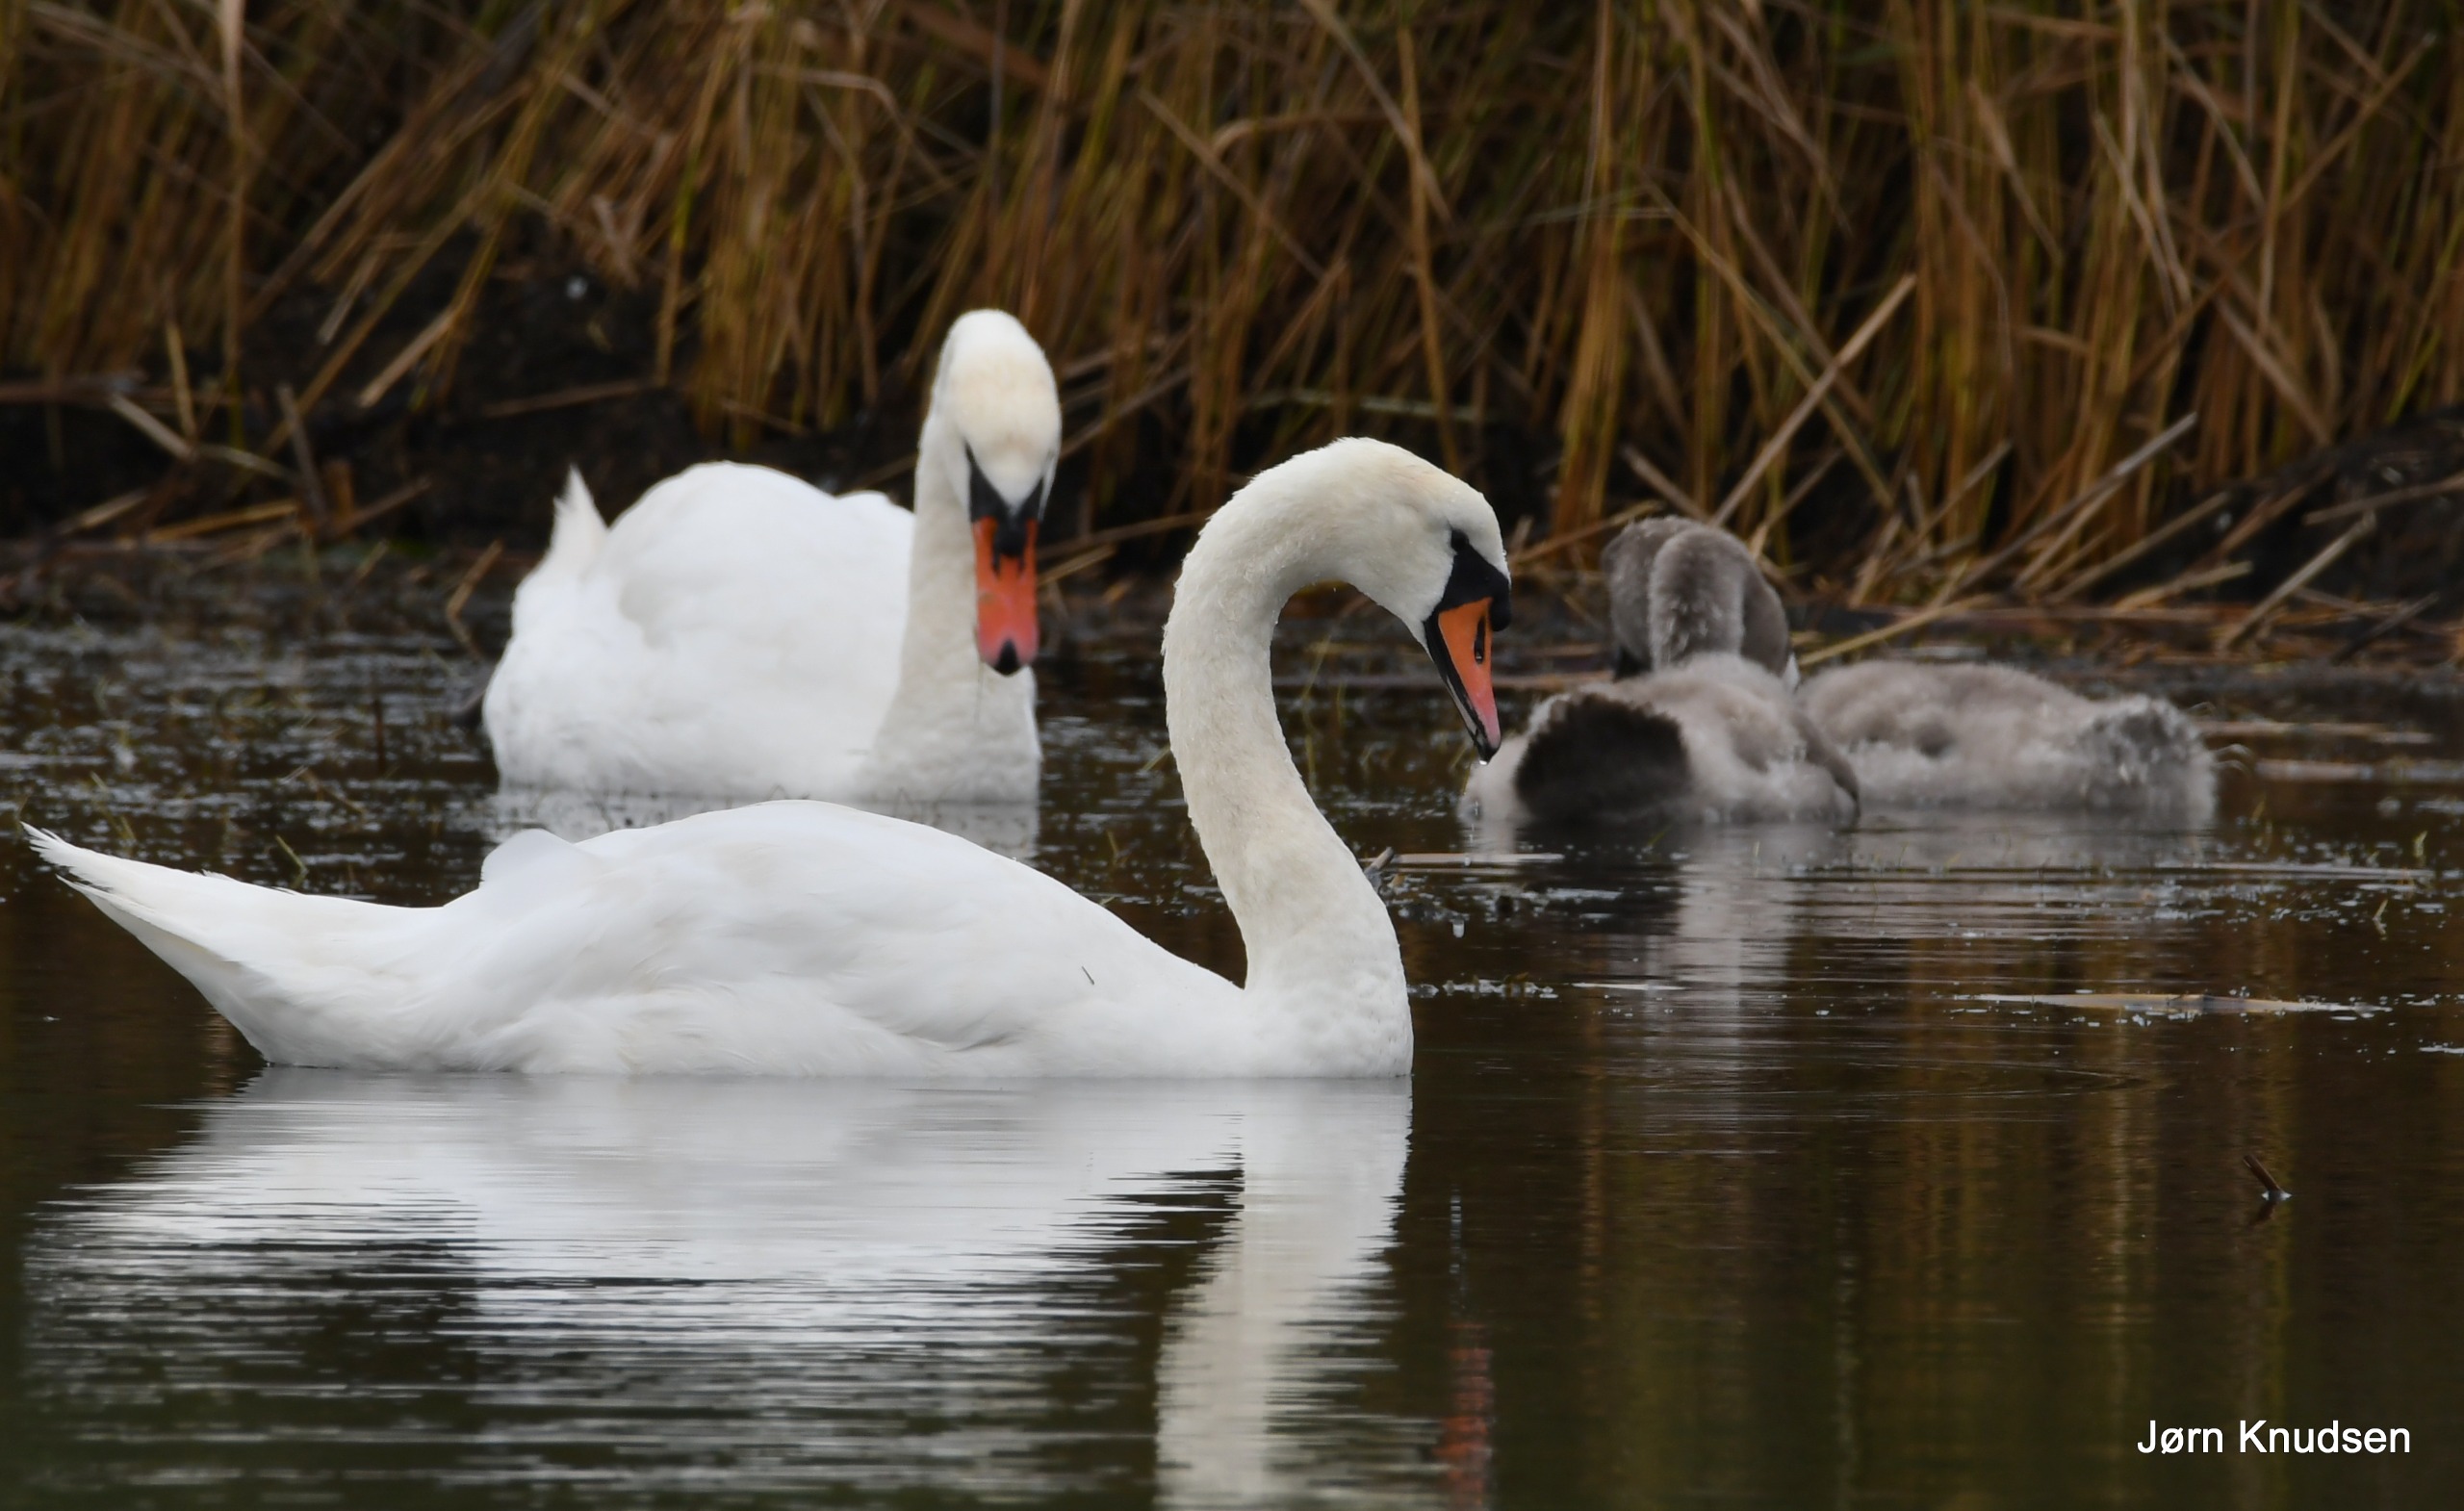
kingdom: Animalia
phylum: Chordata
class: Aves
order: Anseriformes
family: Anatidae
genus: Cygnus
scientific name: Cygnus olor
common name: Knopsvane
